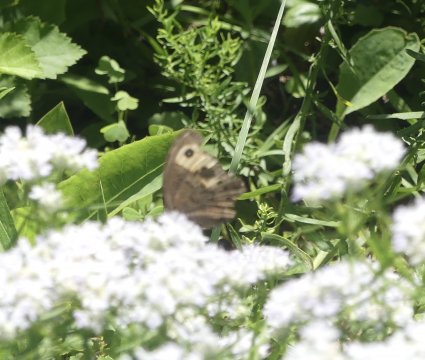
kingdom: Animalia
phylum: Arthropoda
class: Insecta
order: Lepidoptera
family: Nymphalidae
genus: Cercyonis
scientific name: Cercyonis pegala
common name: Common Wood-Nymph
